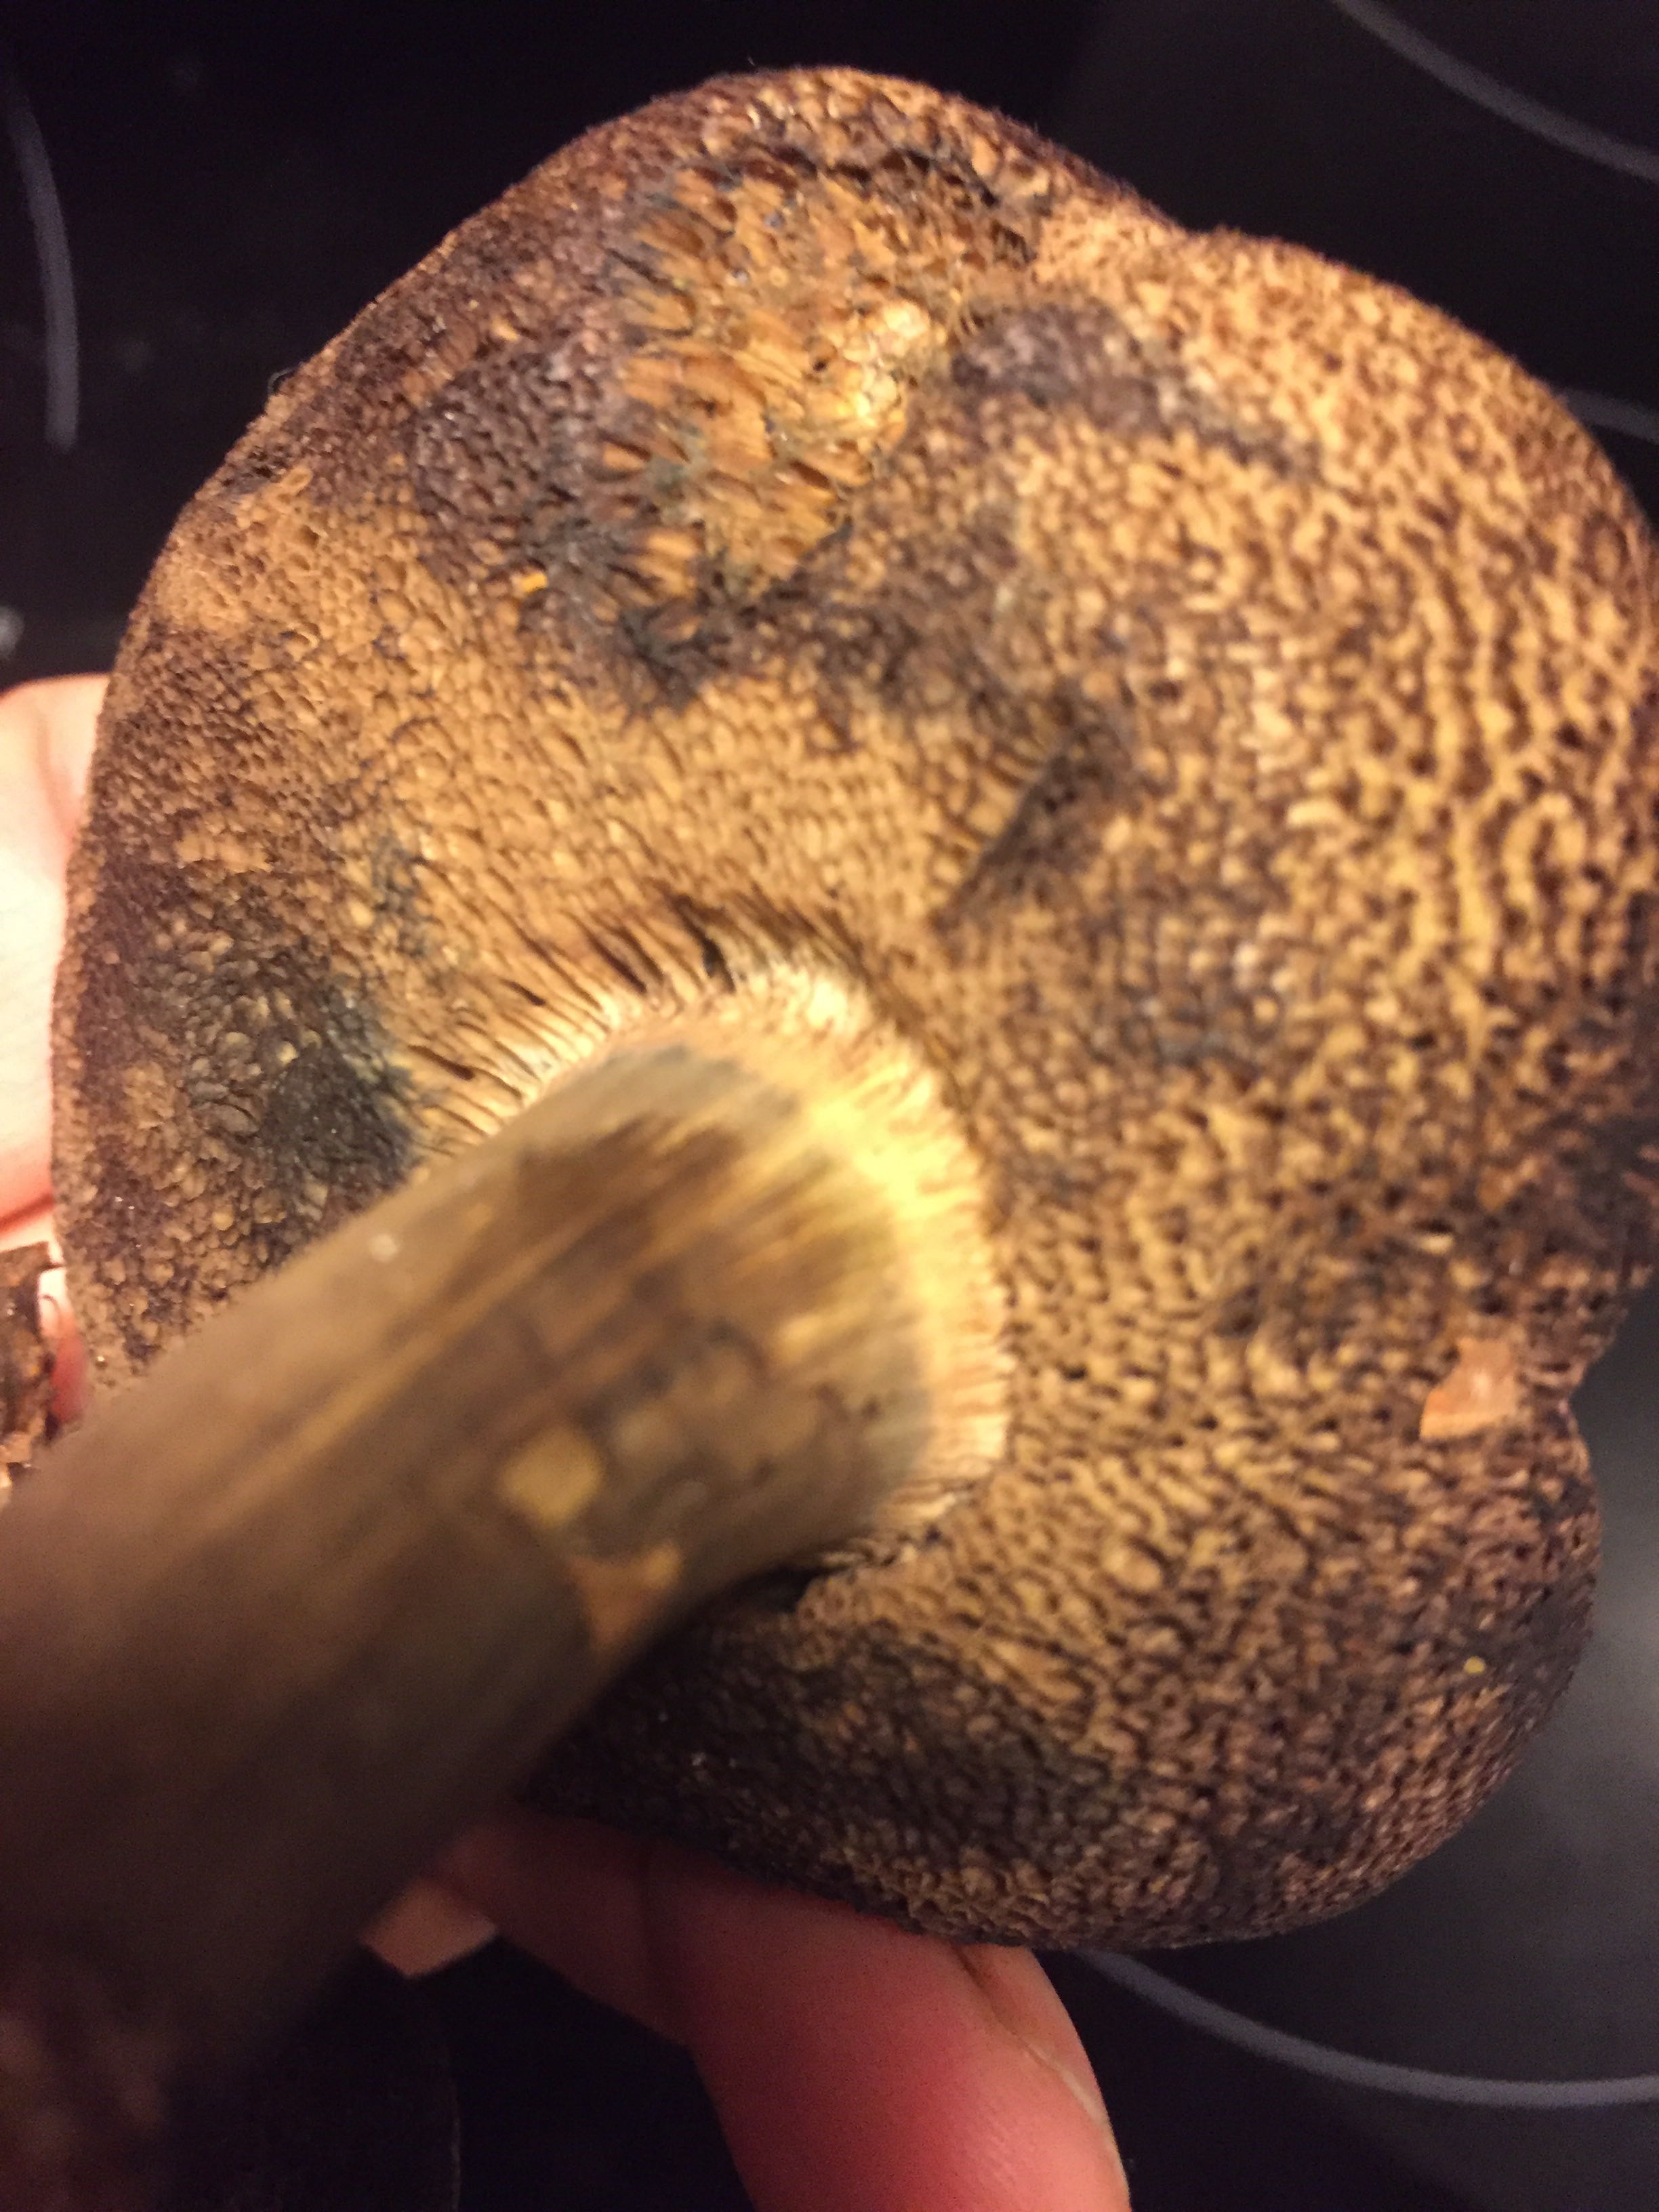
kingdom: Fungi
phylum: Basidiomycota
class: Agaricomycetes
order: Boletales
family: Boletaceae
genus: Porphyrellus
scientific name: Porphyrellus porphyrosporus
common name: sodrørhat
